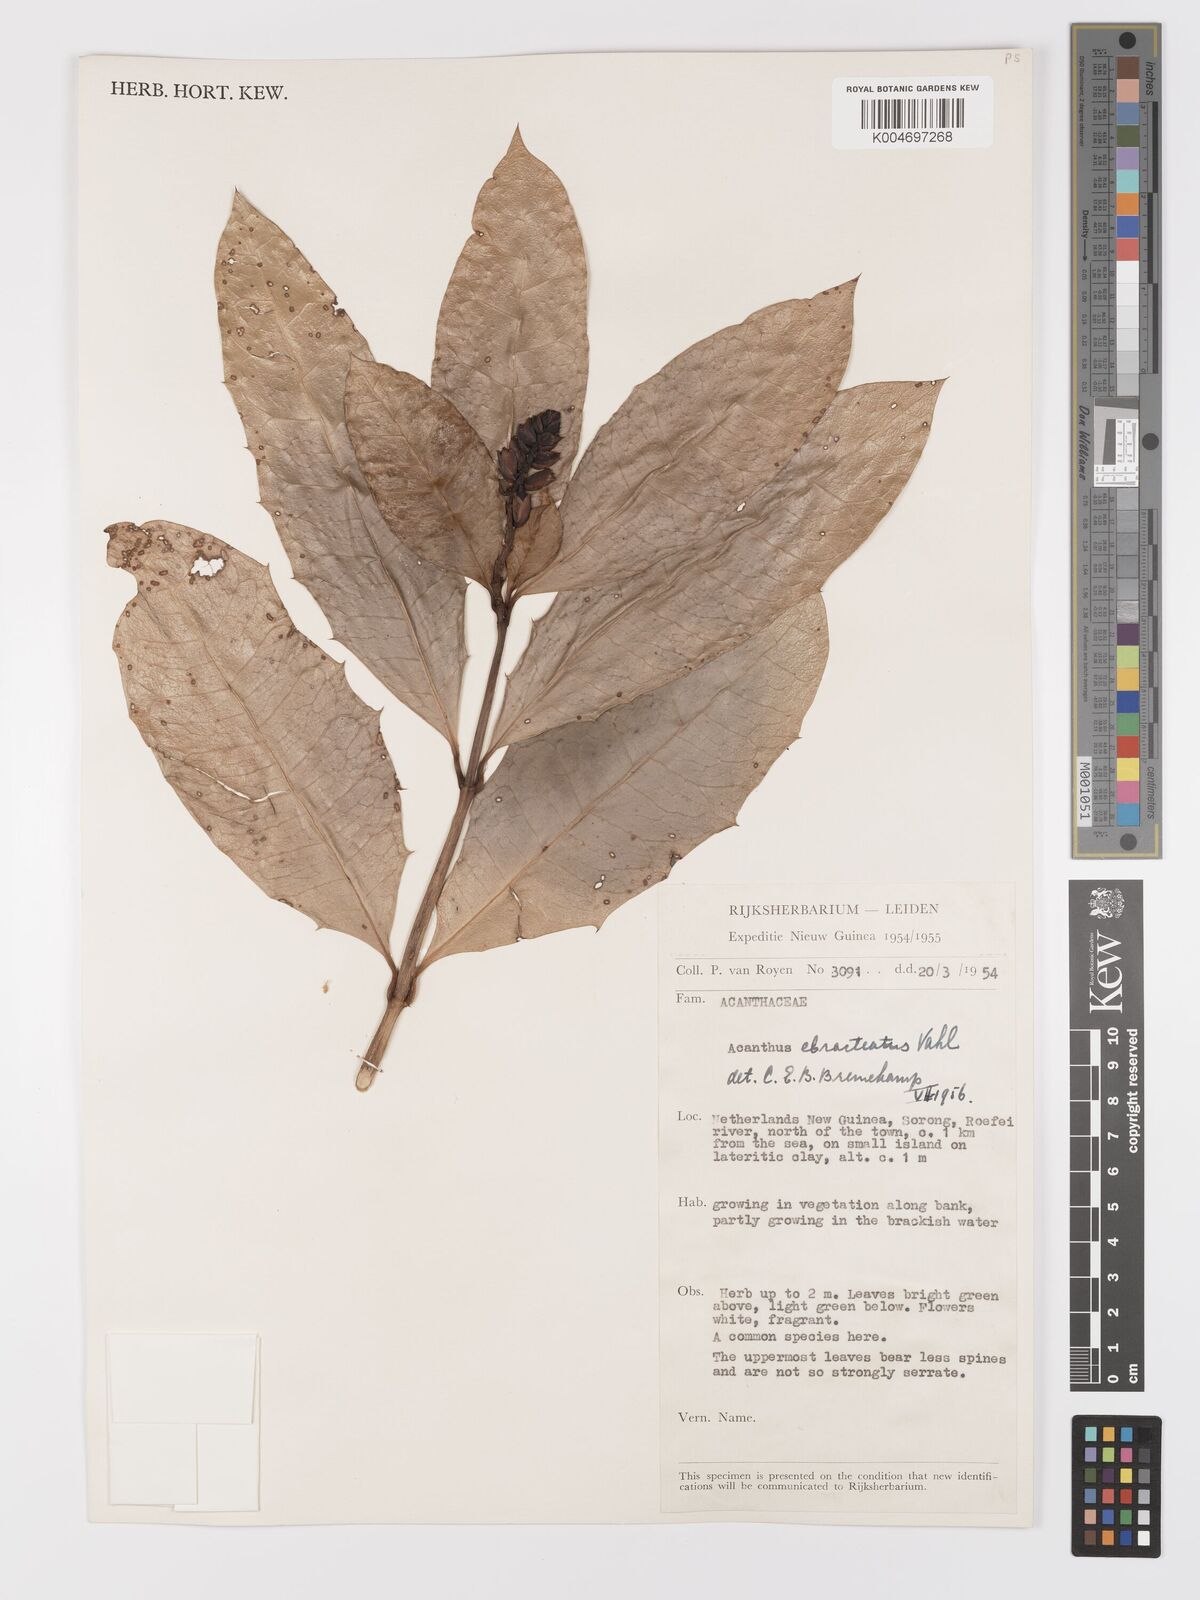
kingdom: Plantae
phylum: Tracheophyta
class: Magnoliopsida
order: Lamiales
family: Acanthaceae
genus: Acanthus
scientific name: Acanthus ebracteatus
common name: Acanthus
